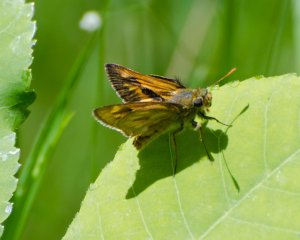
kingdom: Animalia
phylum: Arthropoda
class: Insecta
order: Lepidoptera
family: Hesperiidae
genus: Polites
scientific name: Polites
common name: Long Dash Skipper
